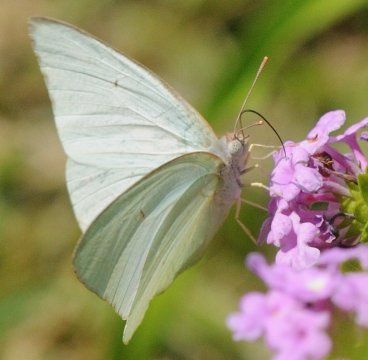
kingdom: Animalia
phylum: Arthropoda
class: Insecta
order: Lepidoptera
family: Pieridae
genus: Catopsilia
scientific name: Catopsilia florella
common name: African Migrant
